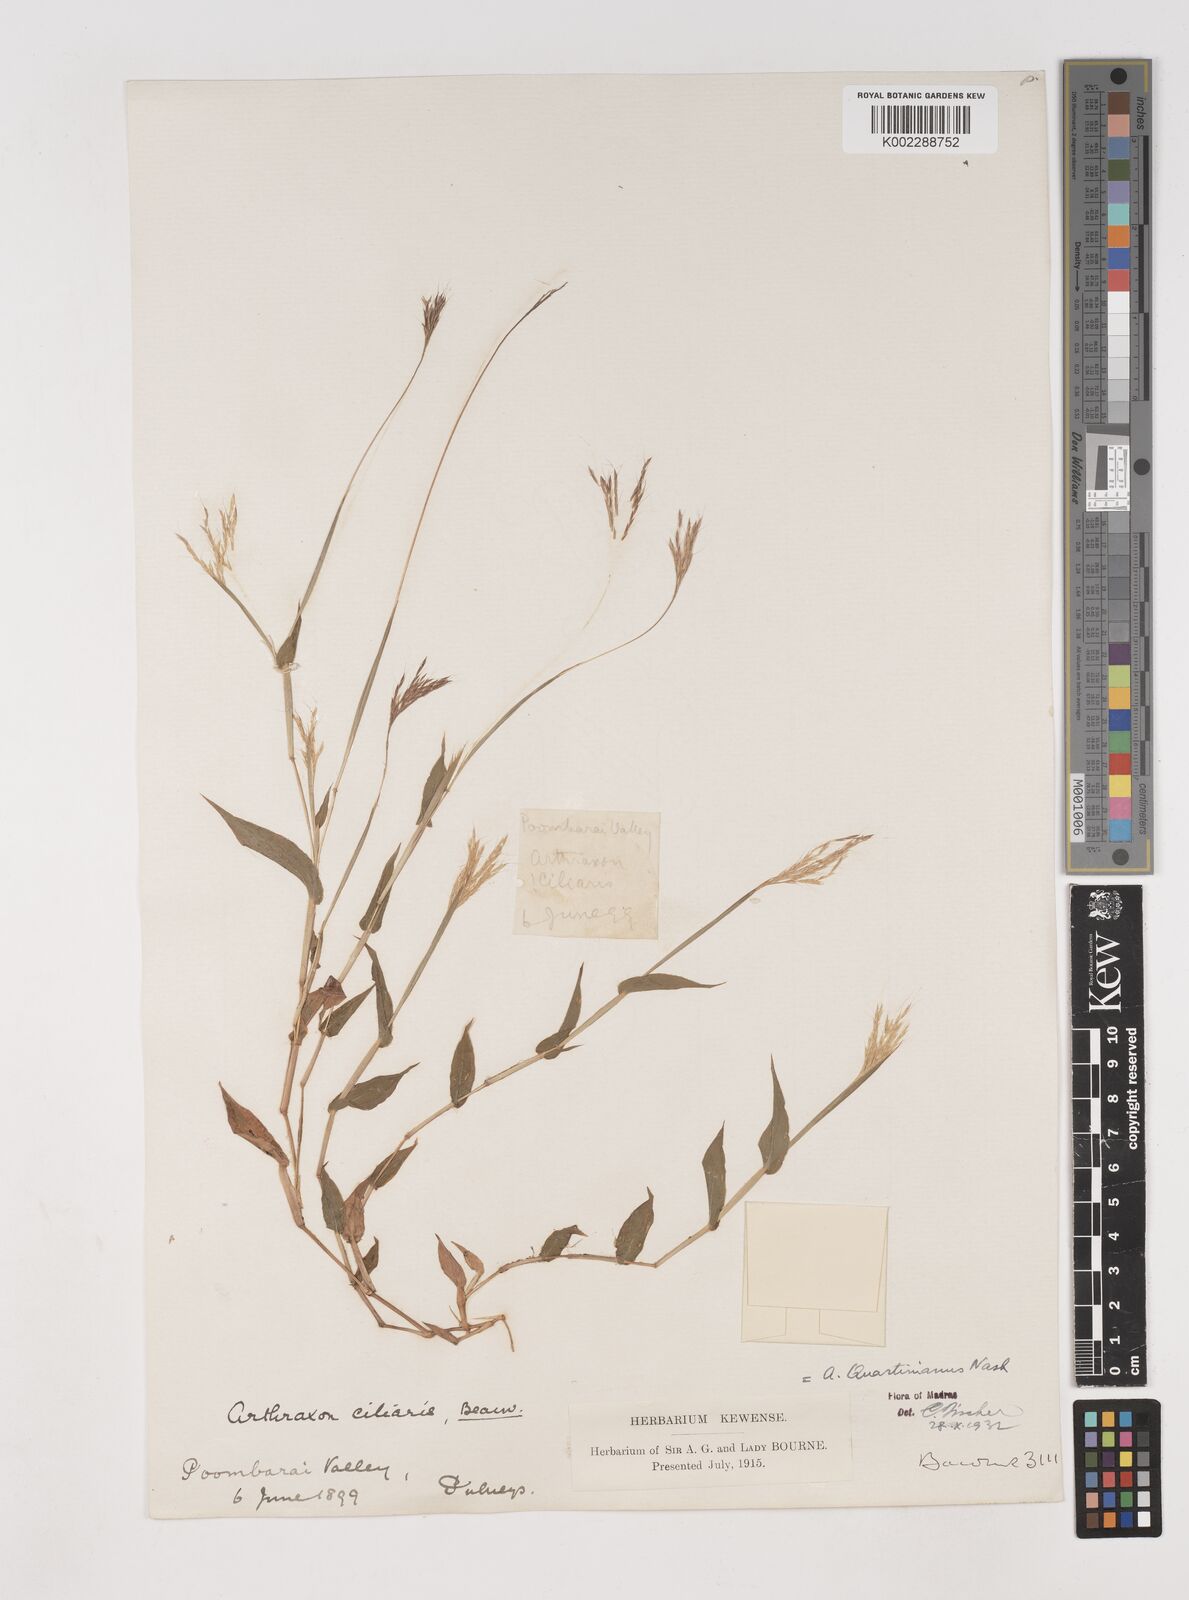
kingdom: Plantae
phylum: Tracheophyta
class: Liliopsida
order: Poales
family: Poaceae
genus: Arthraxon
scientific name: Arthraxon hispidus
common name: Small carpgrass
